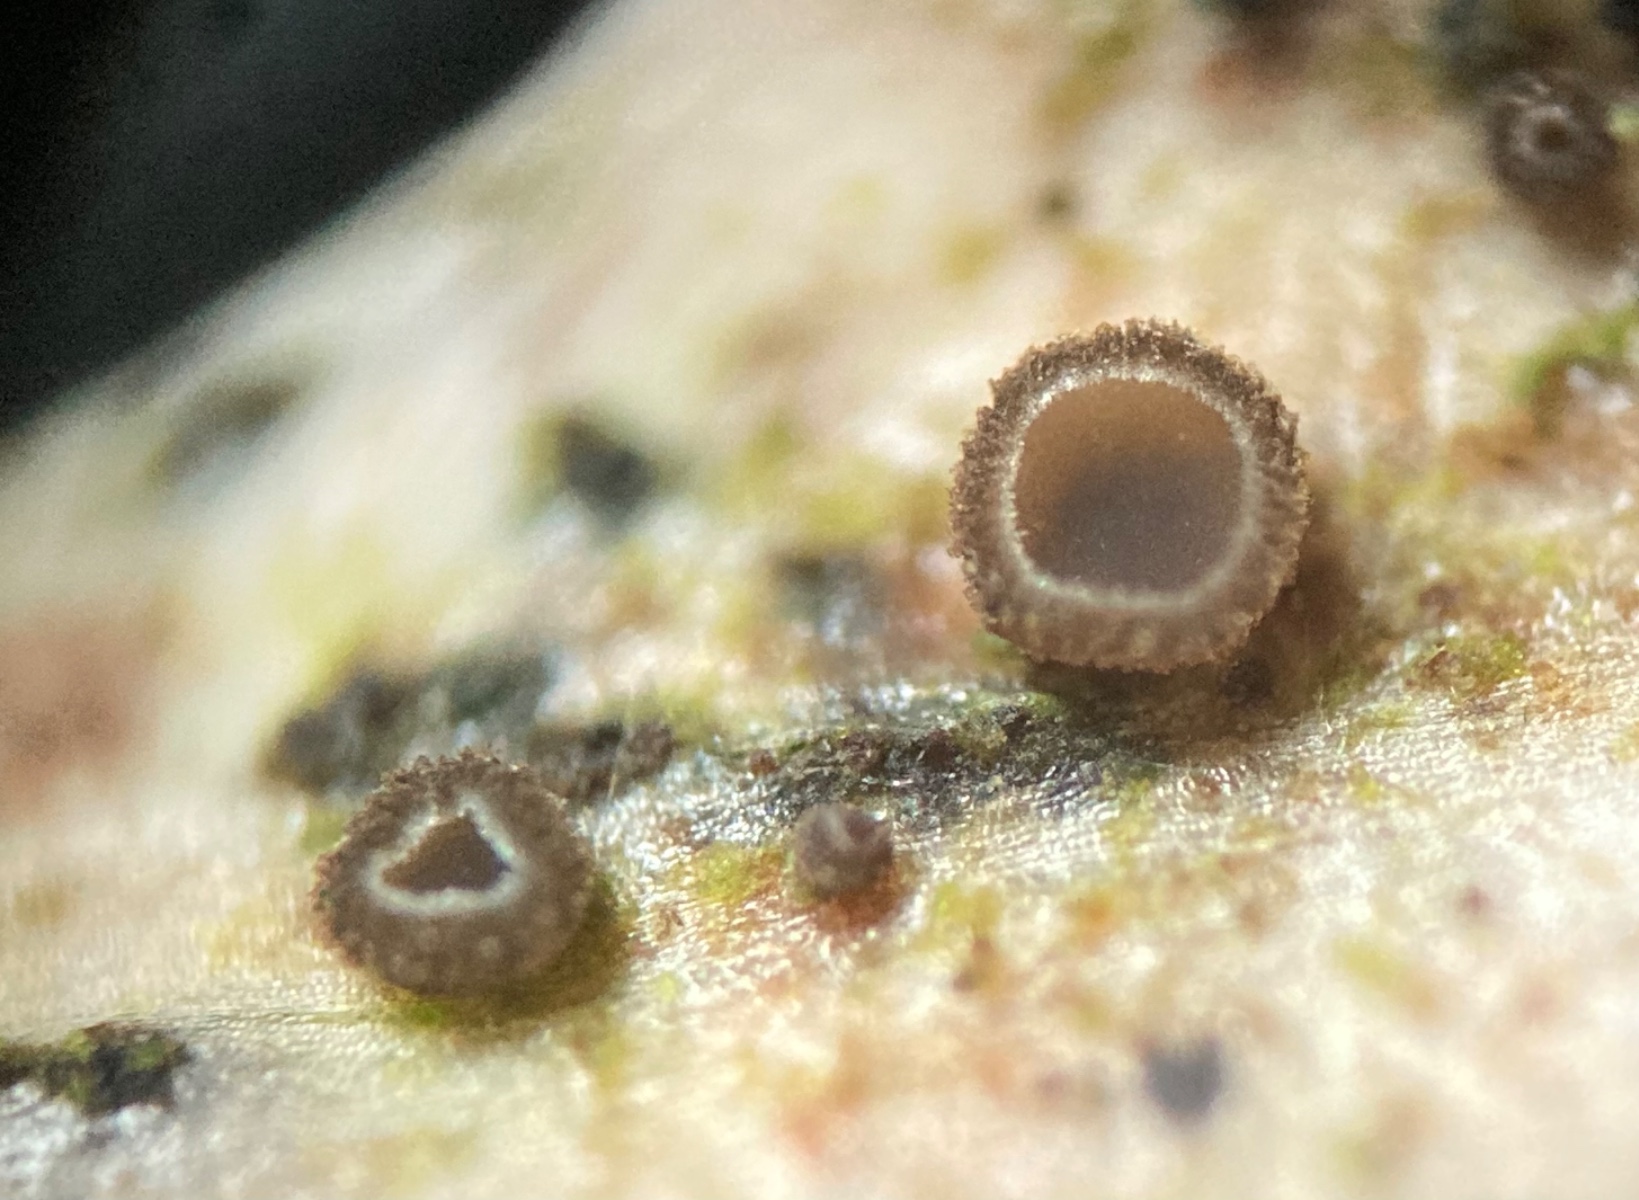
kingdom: Fungi
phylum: Ascomycota
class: Leotiomycetes
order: Helotiales
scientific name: Helotiales
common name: stilkskiveordenen
